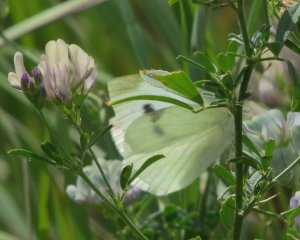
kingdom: Animalia
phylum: Arthropoda
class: Insecta
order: Lepidoptera
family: Pieridae
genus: Pieris
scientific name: Pieris rapae
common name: Cabbage White
